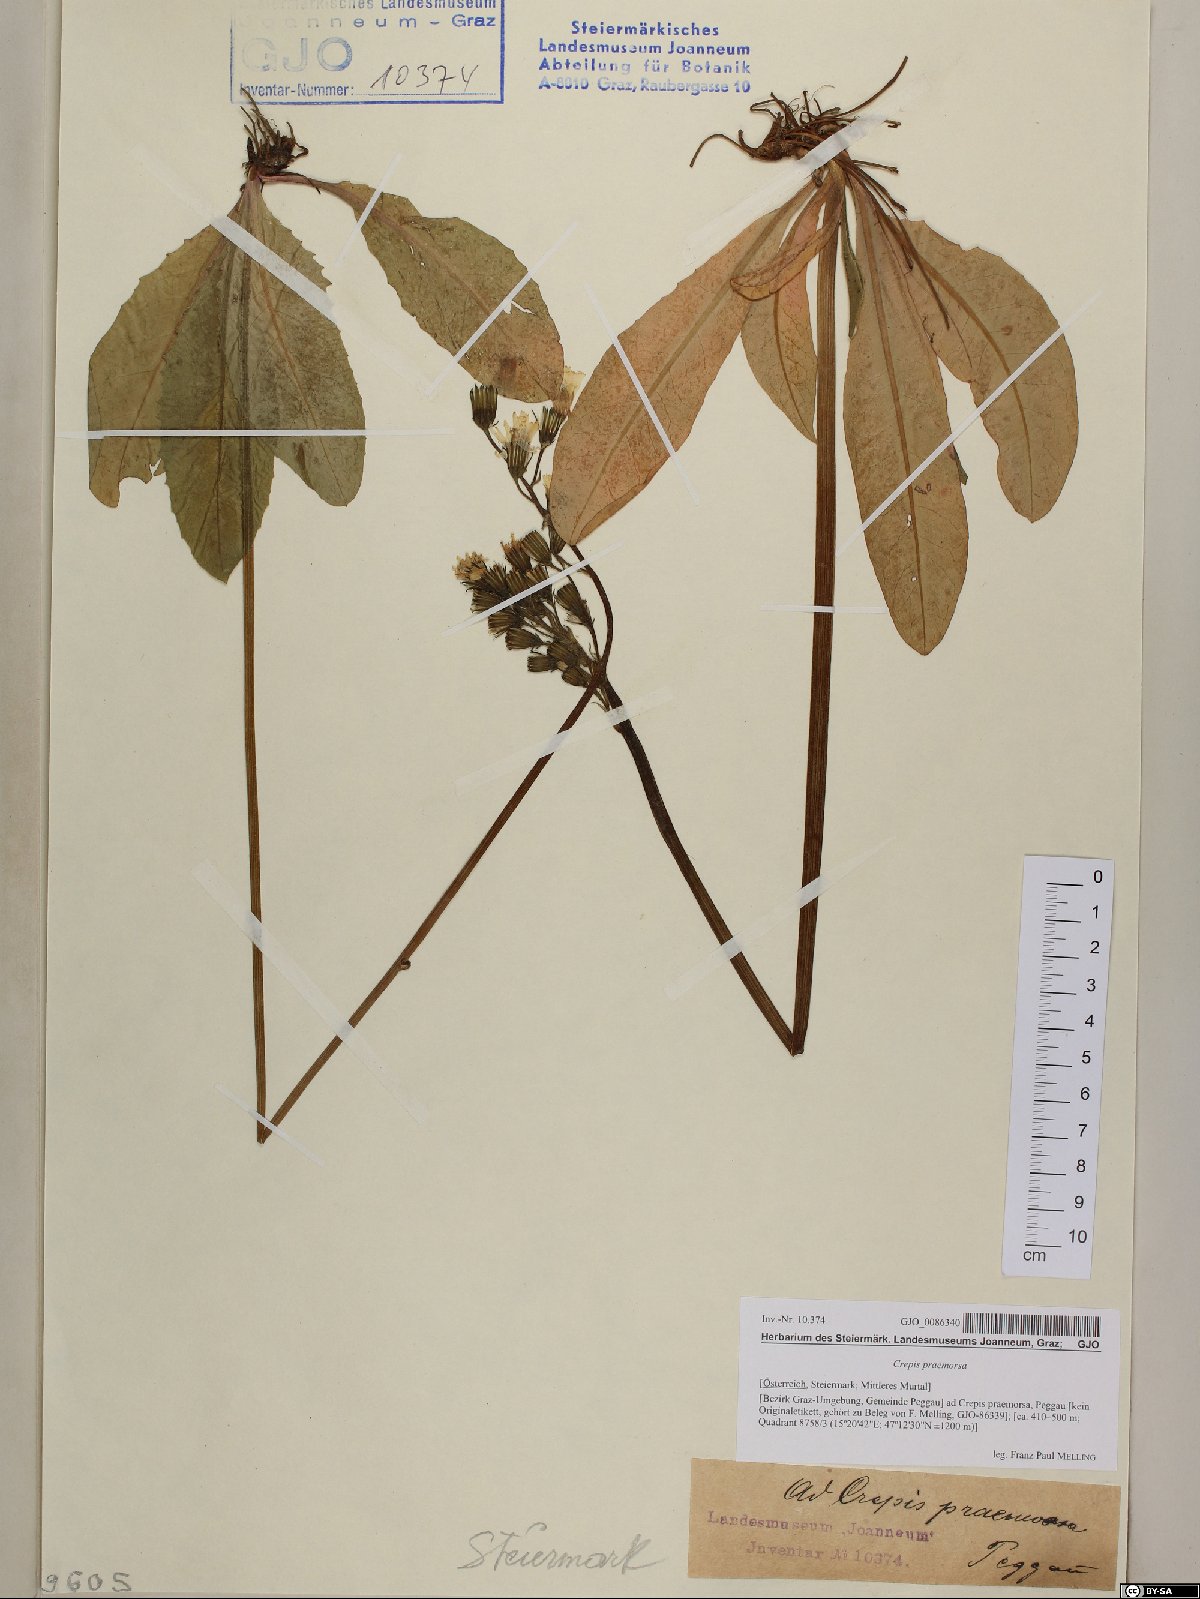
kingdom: Plantae
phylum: Tracheophyta
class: Magnoliopsida
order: Asterales
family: Asteraceae
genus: Crepis
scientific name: Crepis praemorsa
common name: Leafless hawk's-beard
